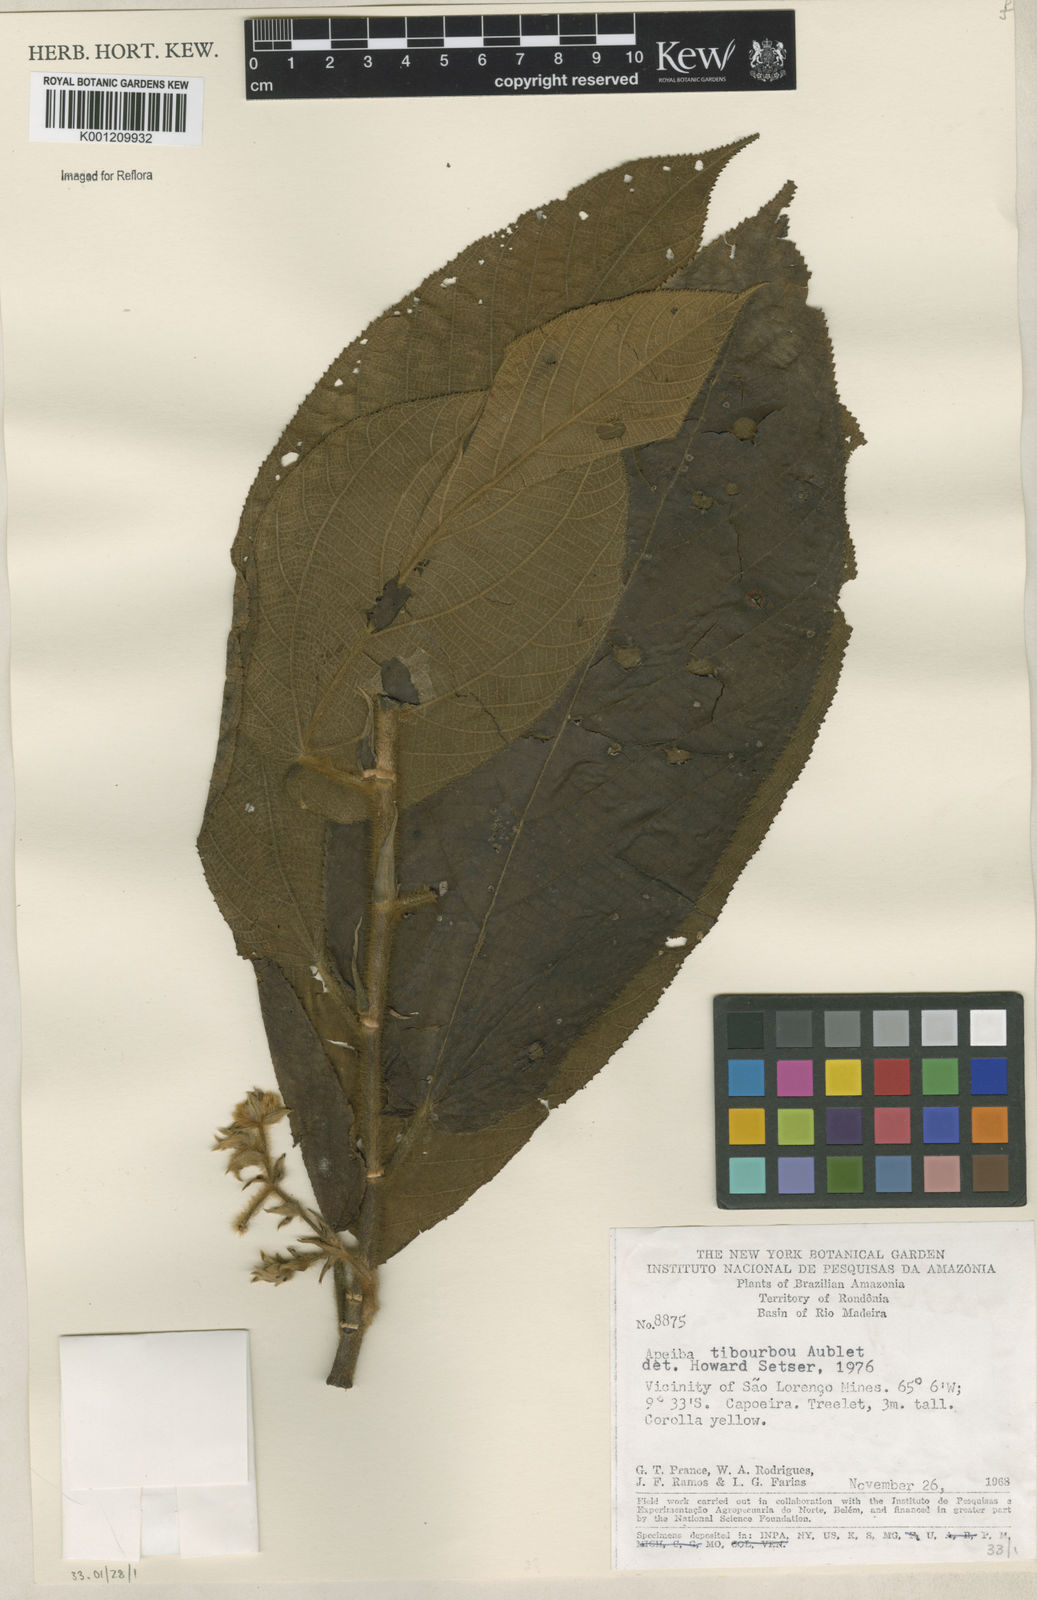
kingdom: Plantae
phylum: Tracheophyta
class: Magnoliopsida
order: Malvales
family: Malvaceae
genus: Apeiba
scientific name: Apeiba tibourbou
